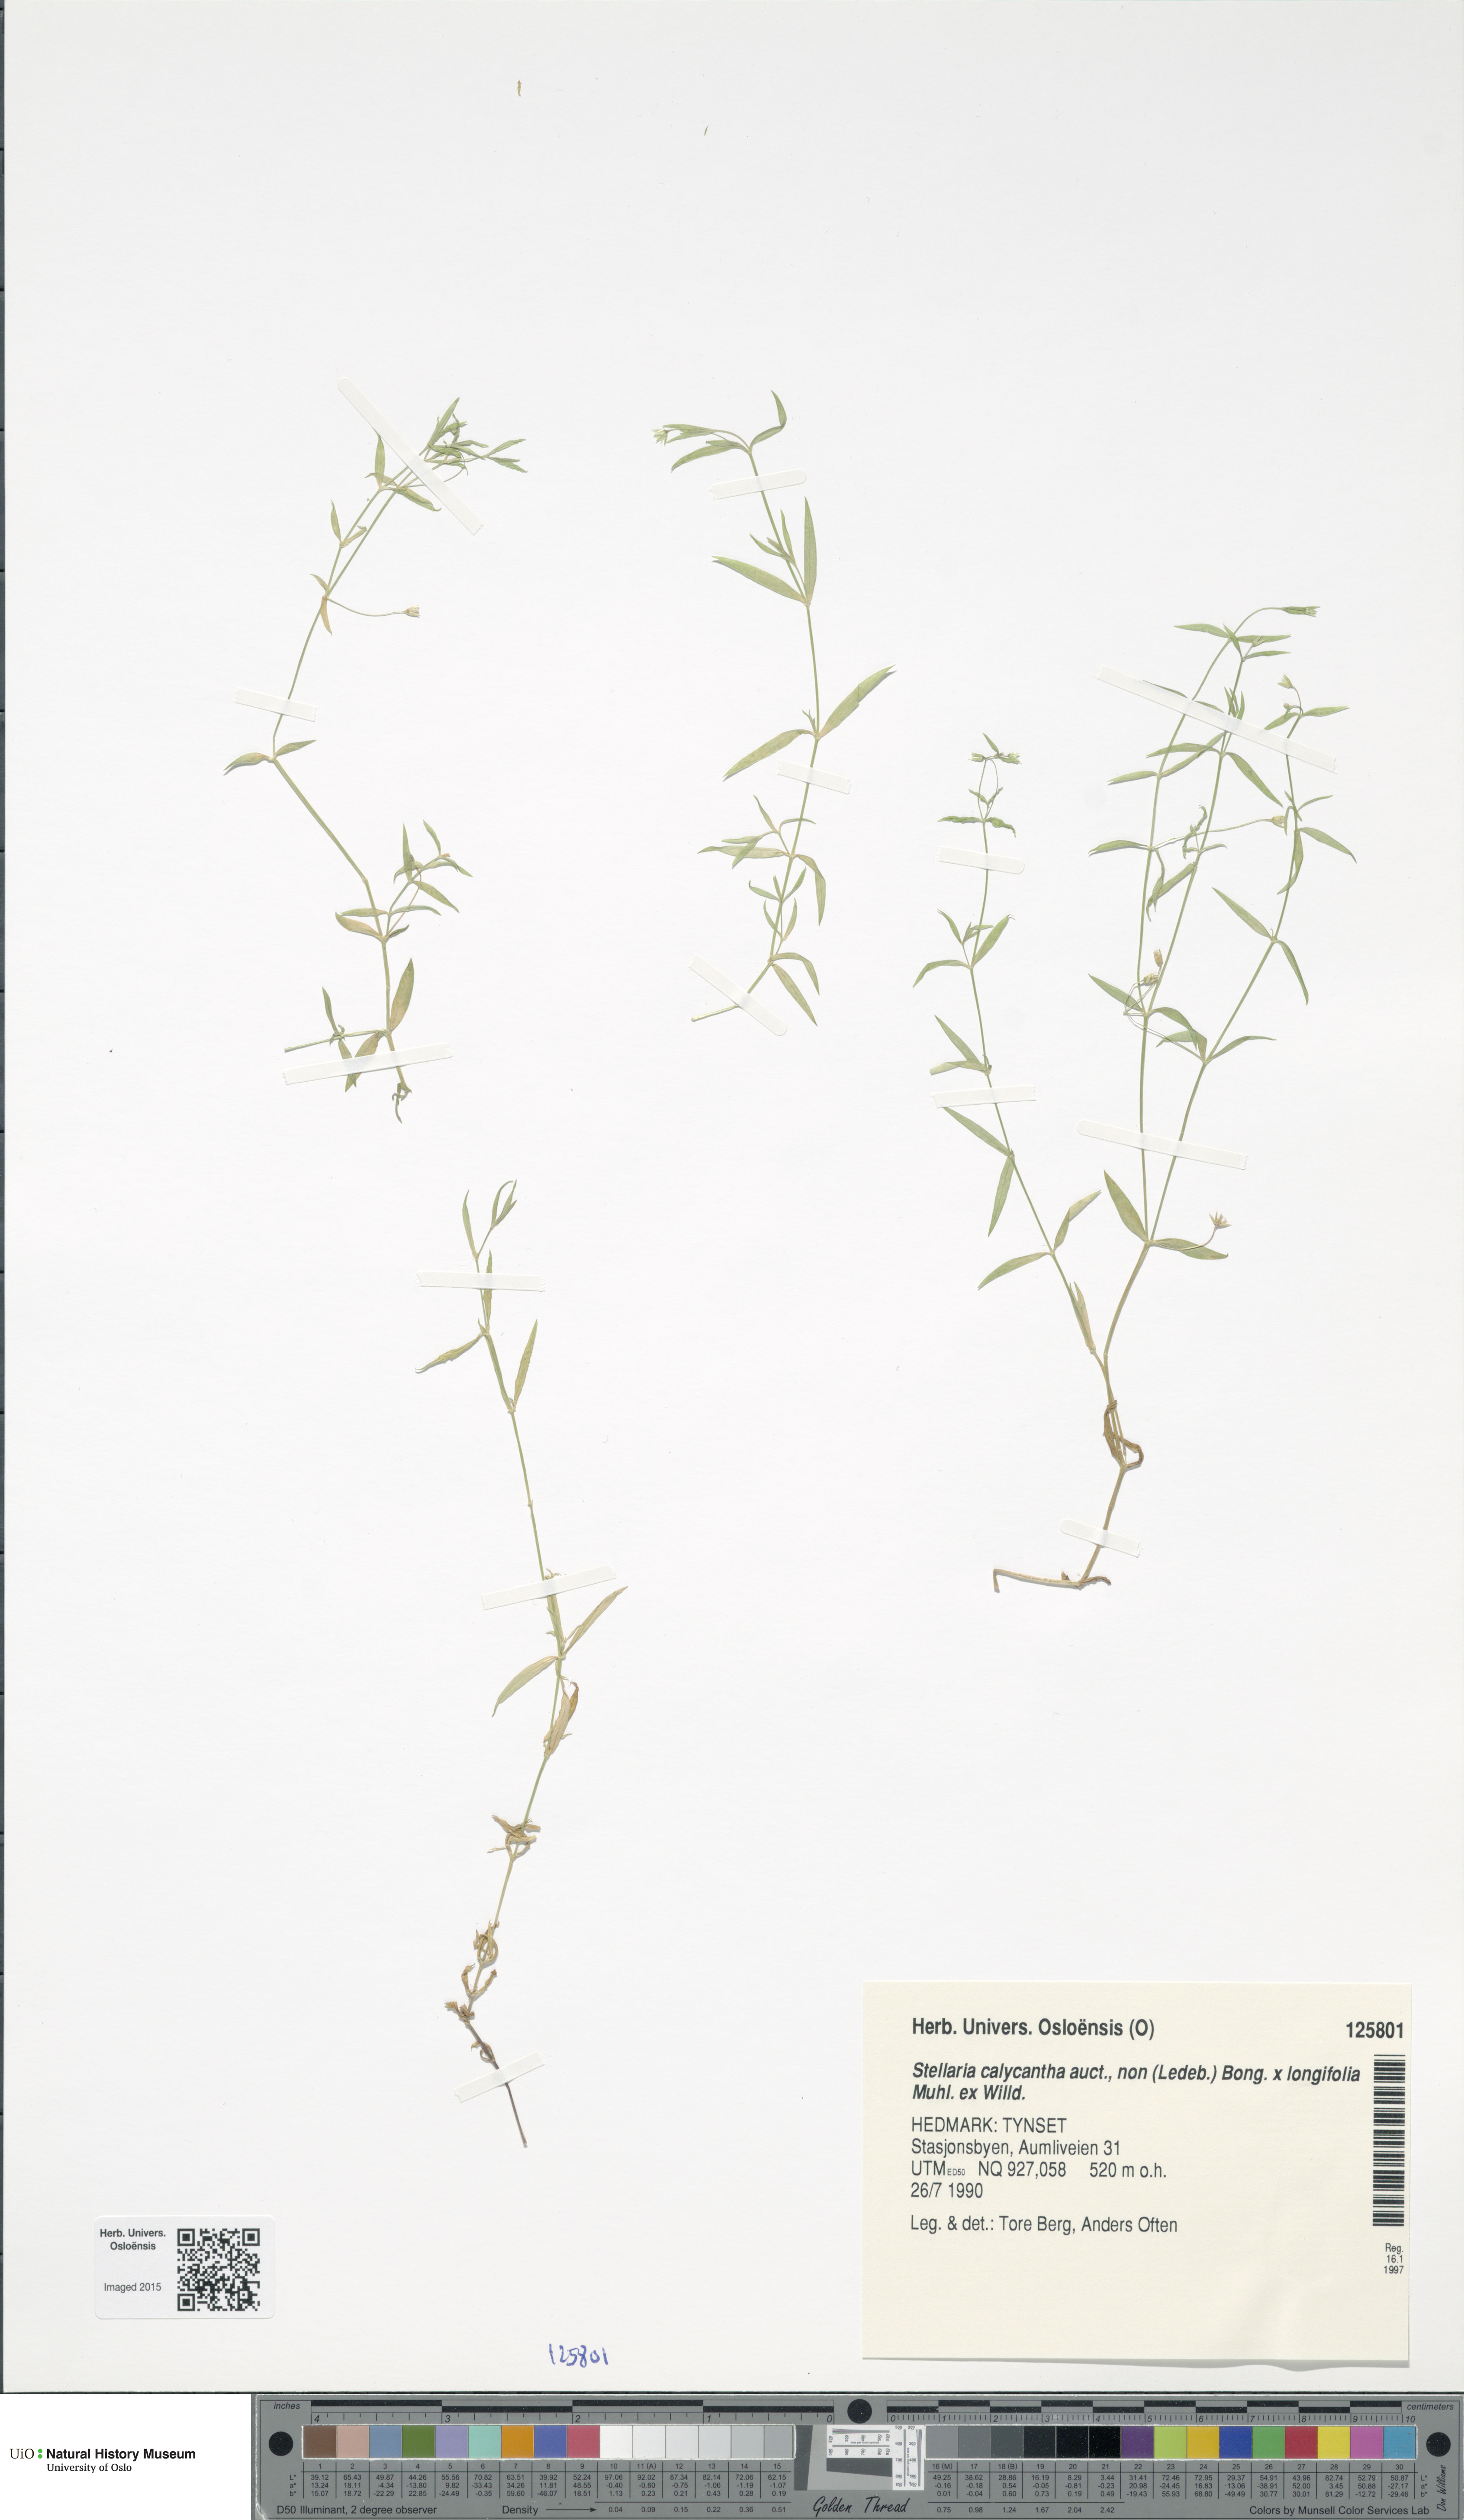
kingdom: Plantae
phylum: Tracheophyta
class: Magnoliopsida
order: Caryophyllales
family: Caryophyllaceae
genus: Stellaria
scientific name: Stellaria
